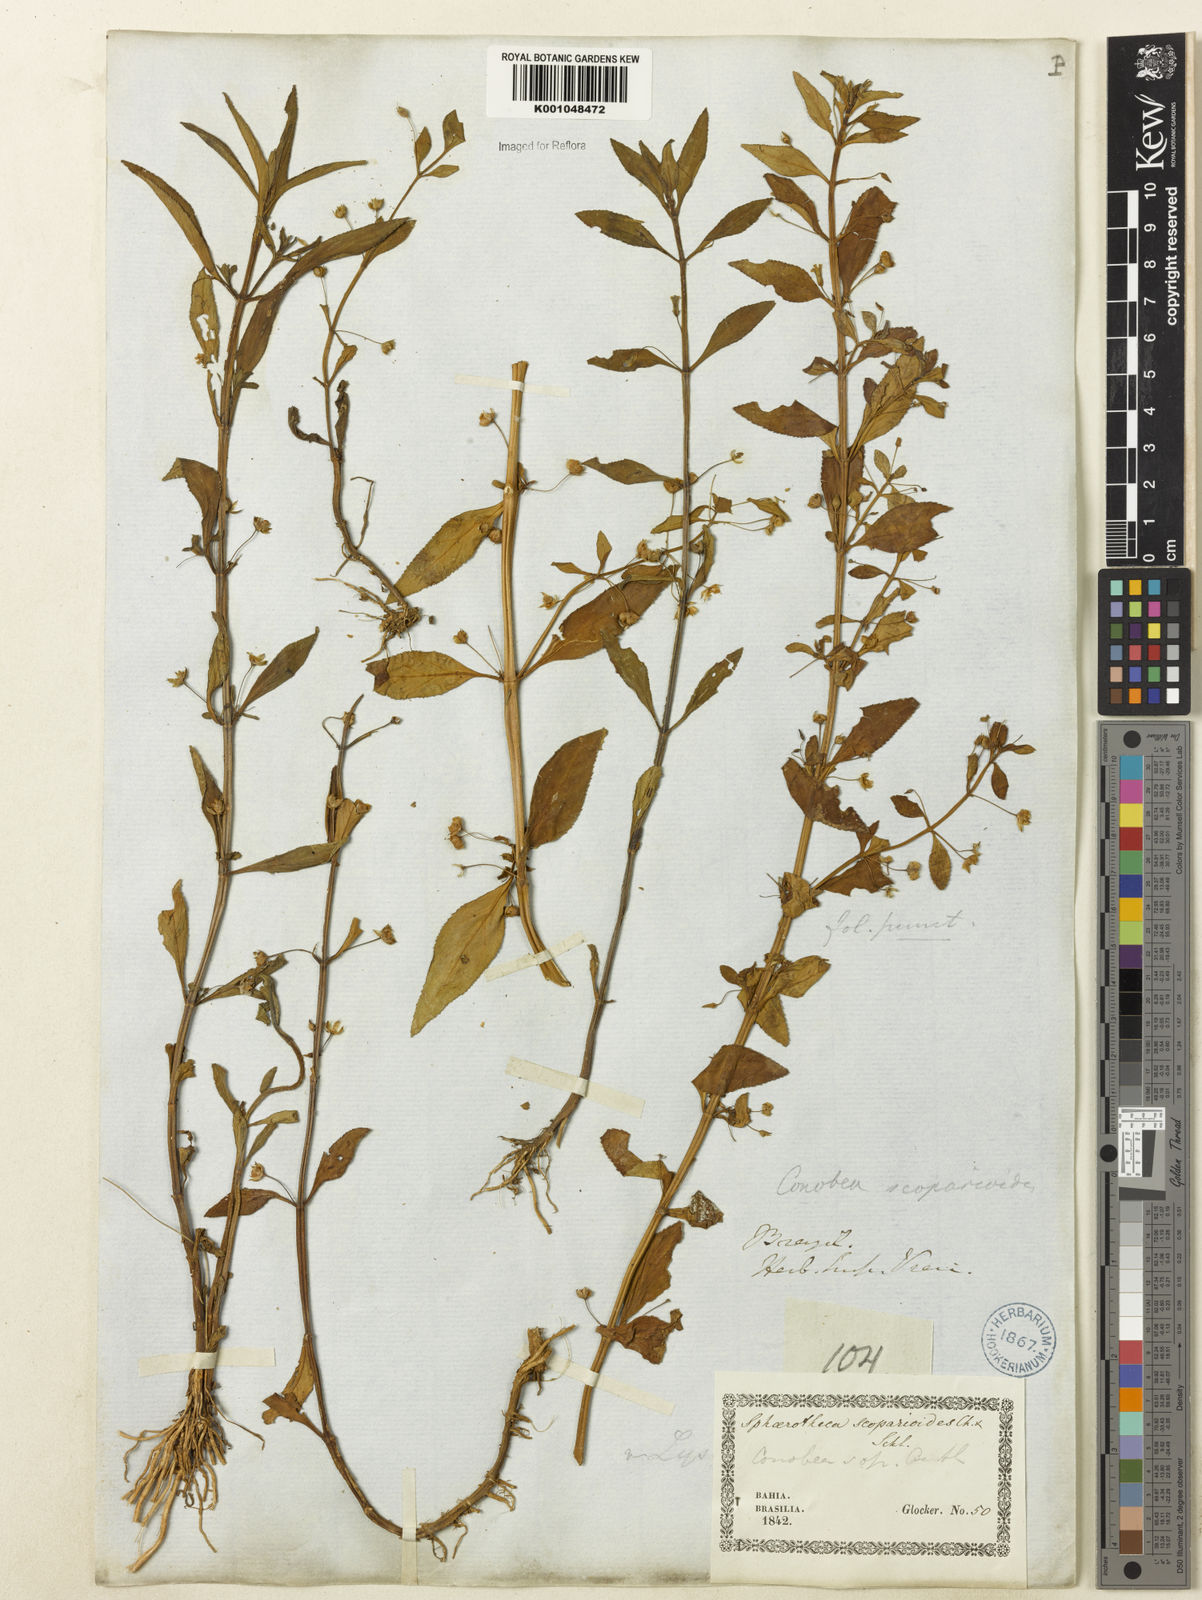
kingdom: Plantae
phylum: Tracheophyta
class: Magnoliopsida
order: Lamiales
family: Plantaginaceae
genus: Conobea
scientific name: Conobea scoparioides
